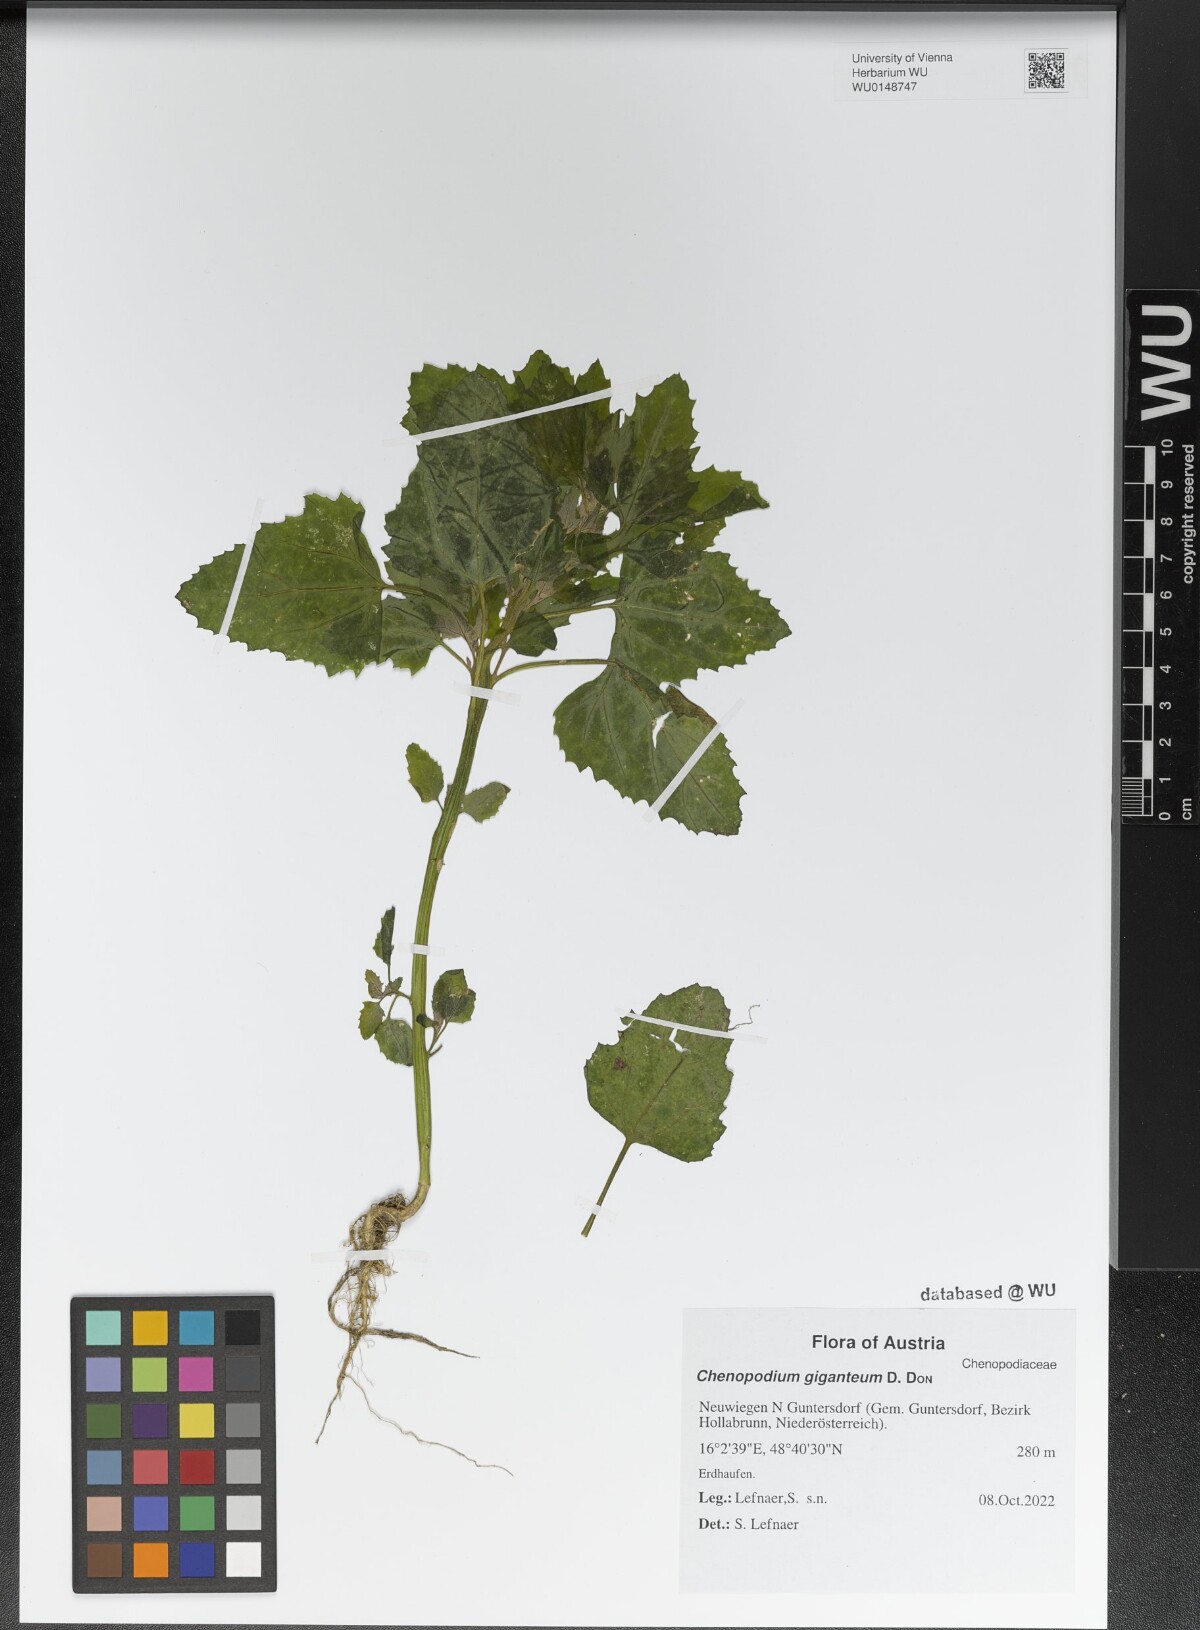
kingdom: Plantae
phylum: Tracheophyta
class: Magnoliopsida
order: Caryophyllales
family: Amaranthaceae
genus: Chenopodium
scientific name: Chenopodium giganteum
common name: Magentaspreen
